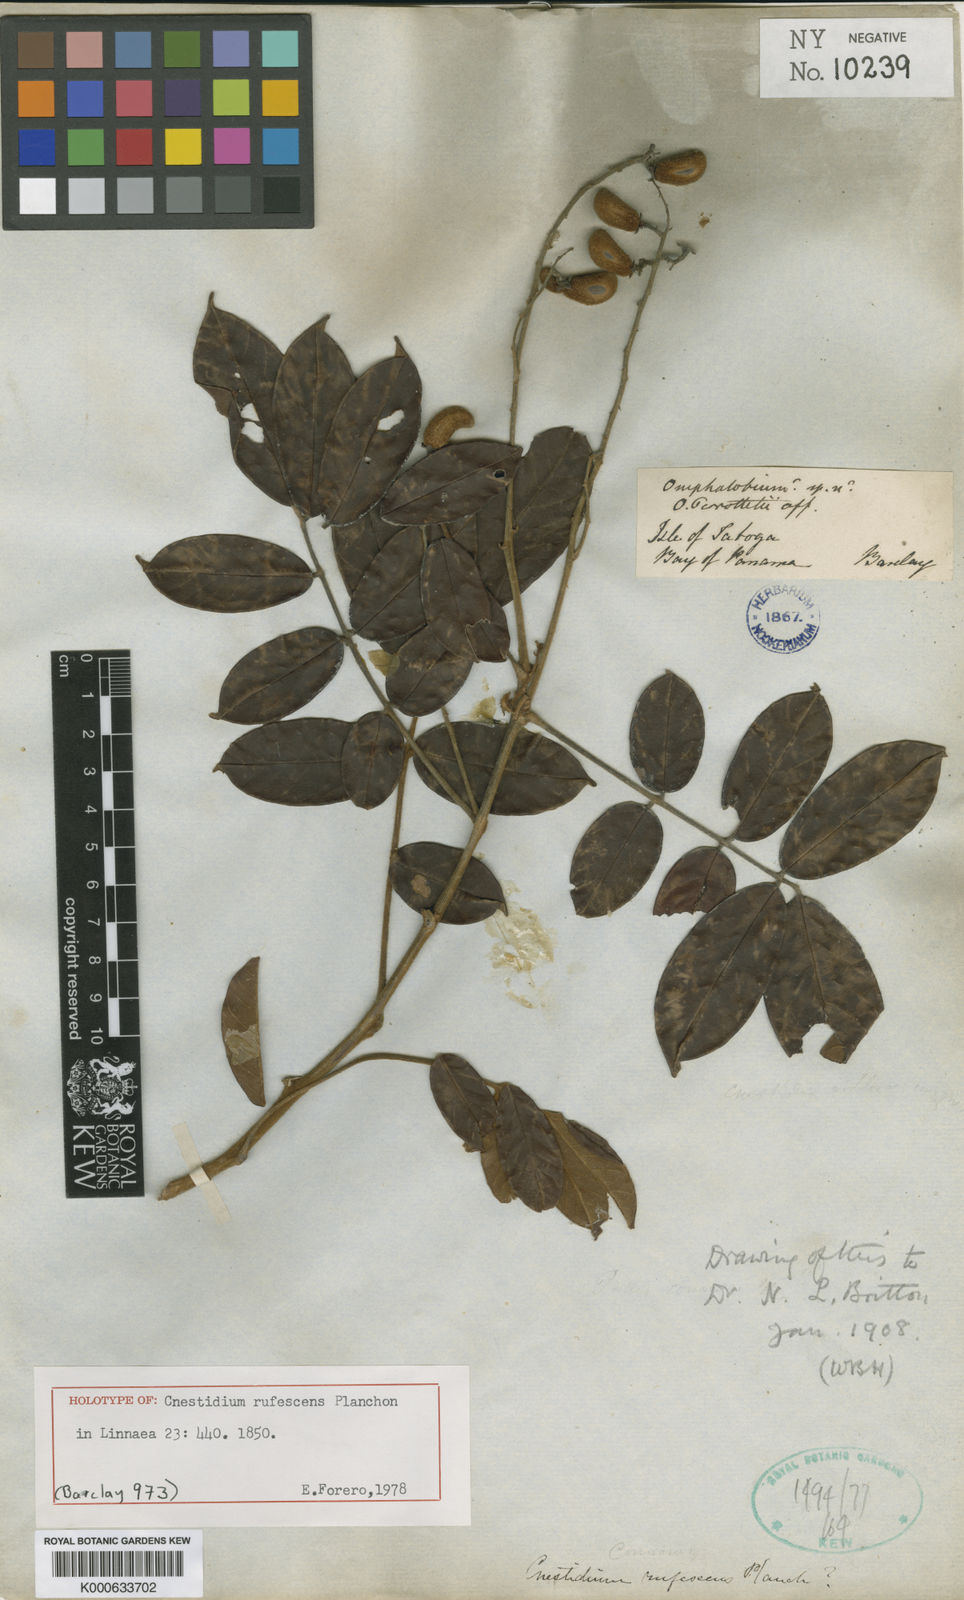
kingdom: Plantae
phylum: Tracheophyta
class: Magnoliopsida
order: Oxalidales
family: Connaraceae
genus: Cnestidium
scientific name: Cnestidium rufescens
